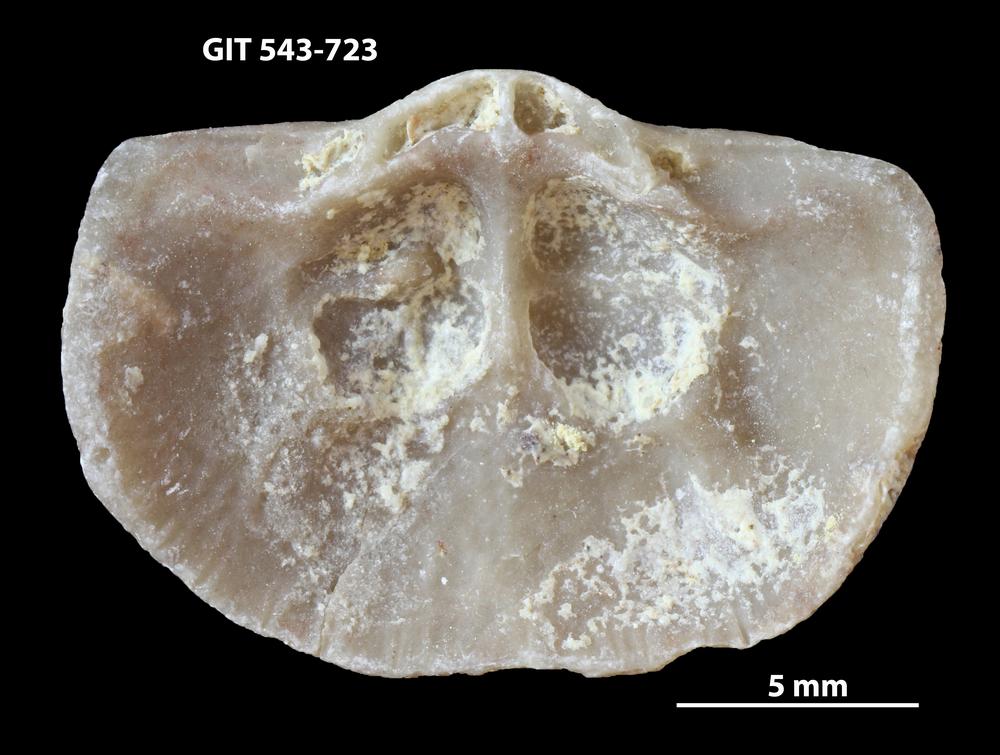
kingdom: Animalia
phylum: Brachiopoda
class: Rhynchonellata
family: Clitambonitidae
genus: Vellamo
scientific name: Vellamo oandoensis
